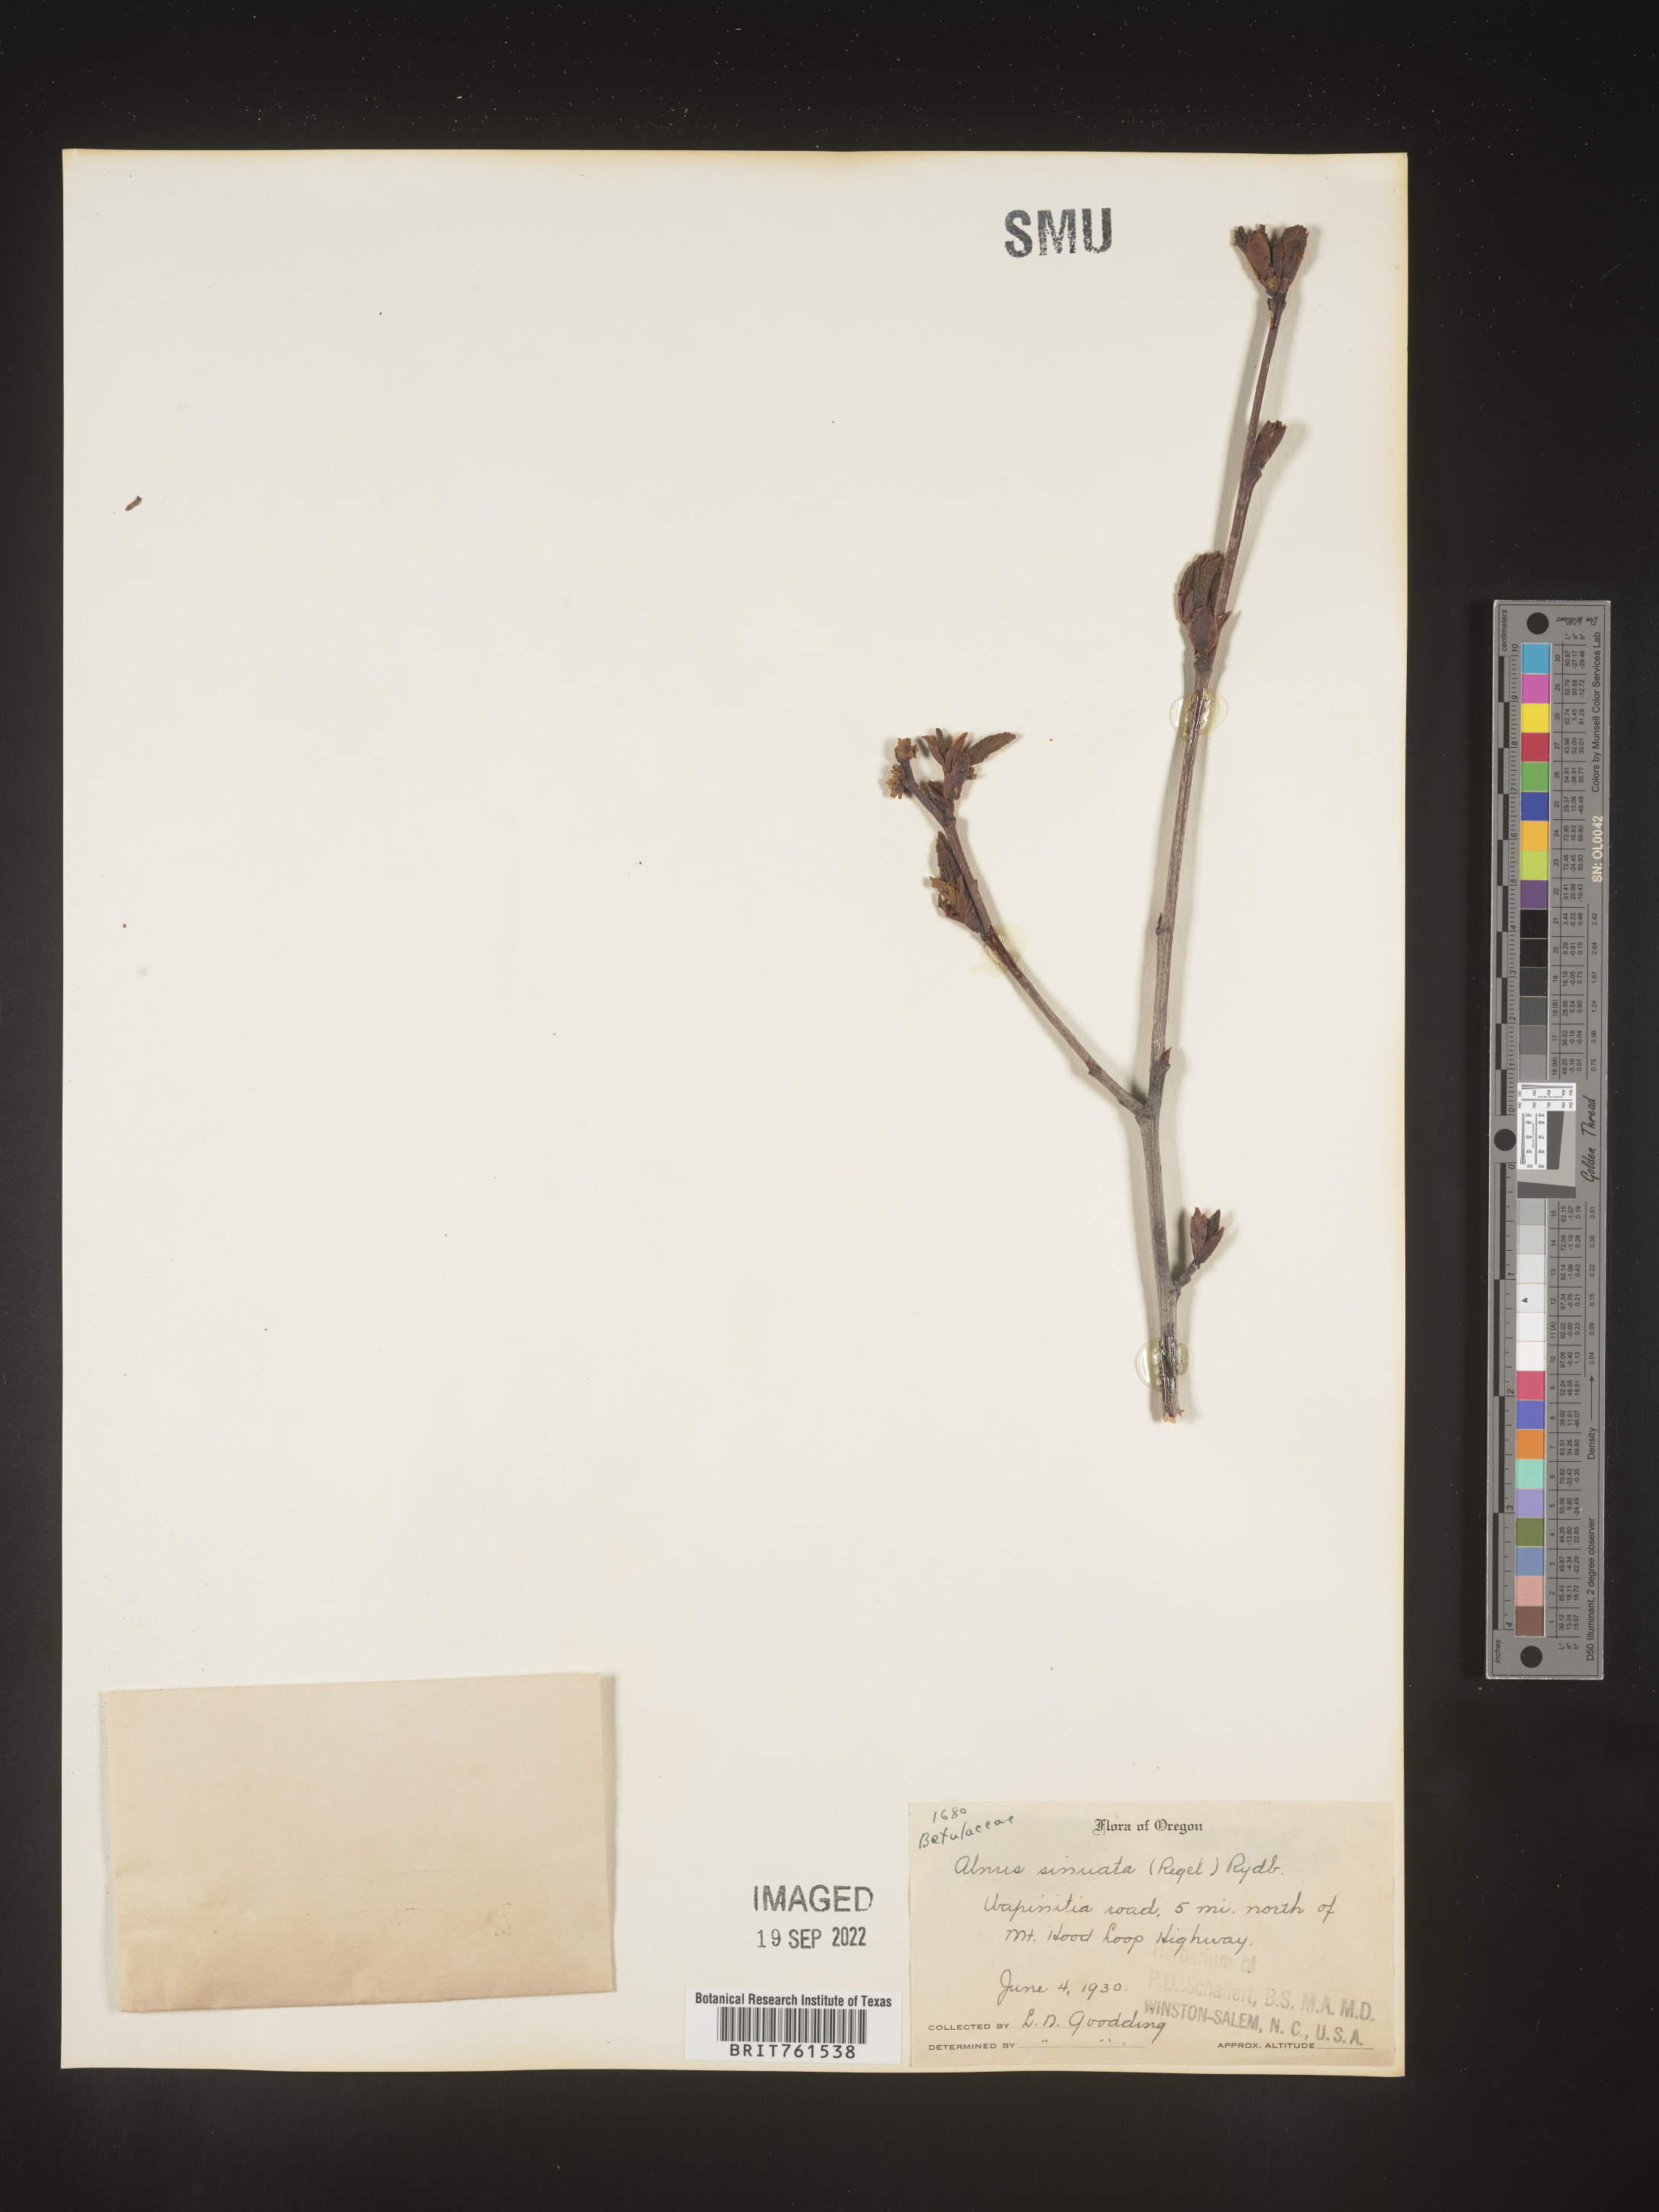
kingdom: Plantae
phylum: Tracheophyta
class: Magnoliopsida
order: Fagales
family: Betulaceae
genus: Alnus
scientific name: Alnus alnobetula
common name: Green alder
